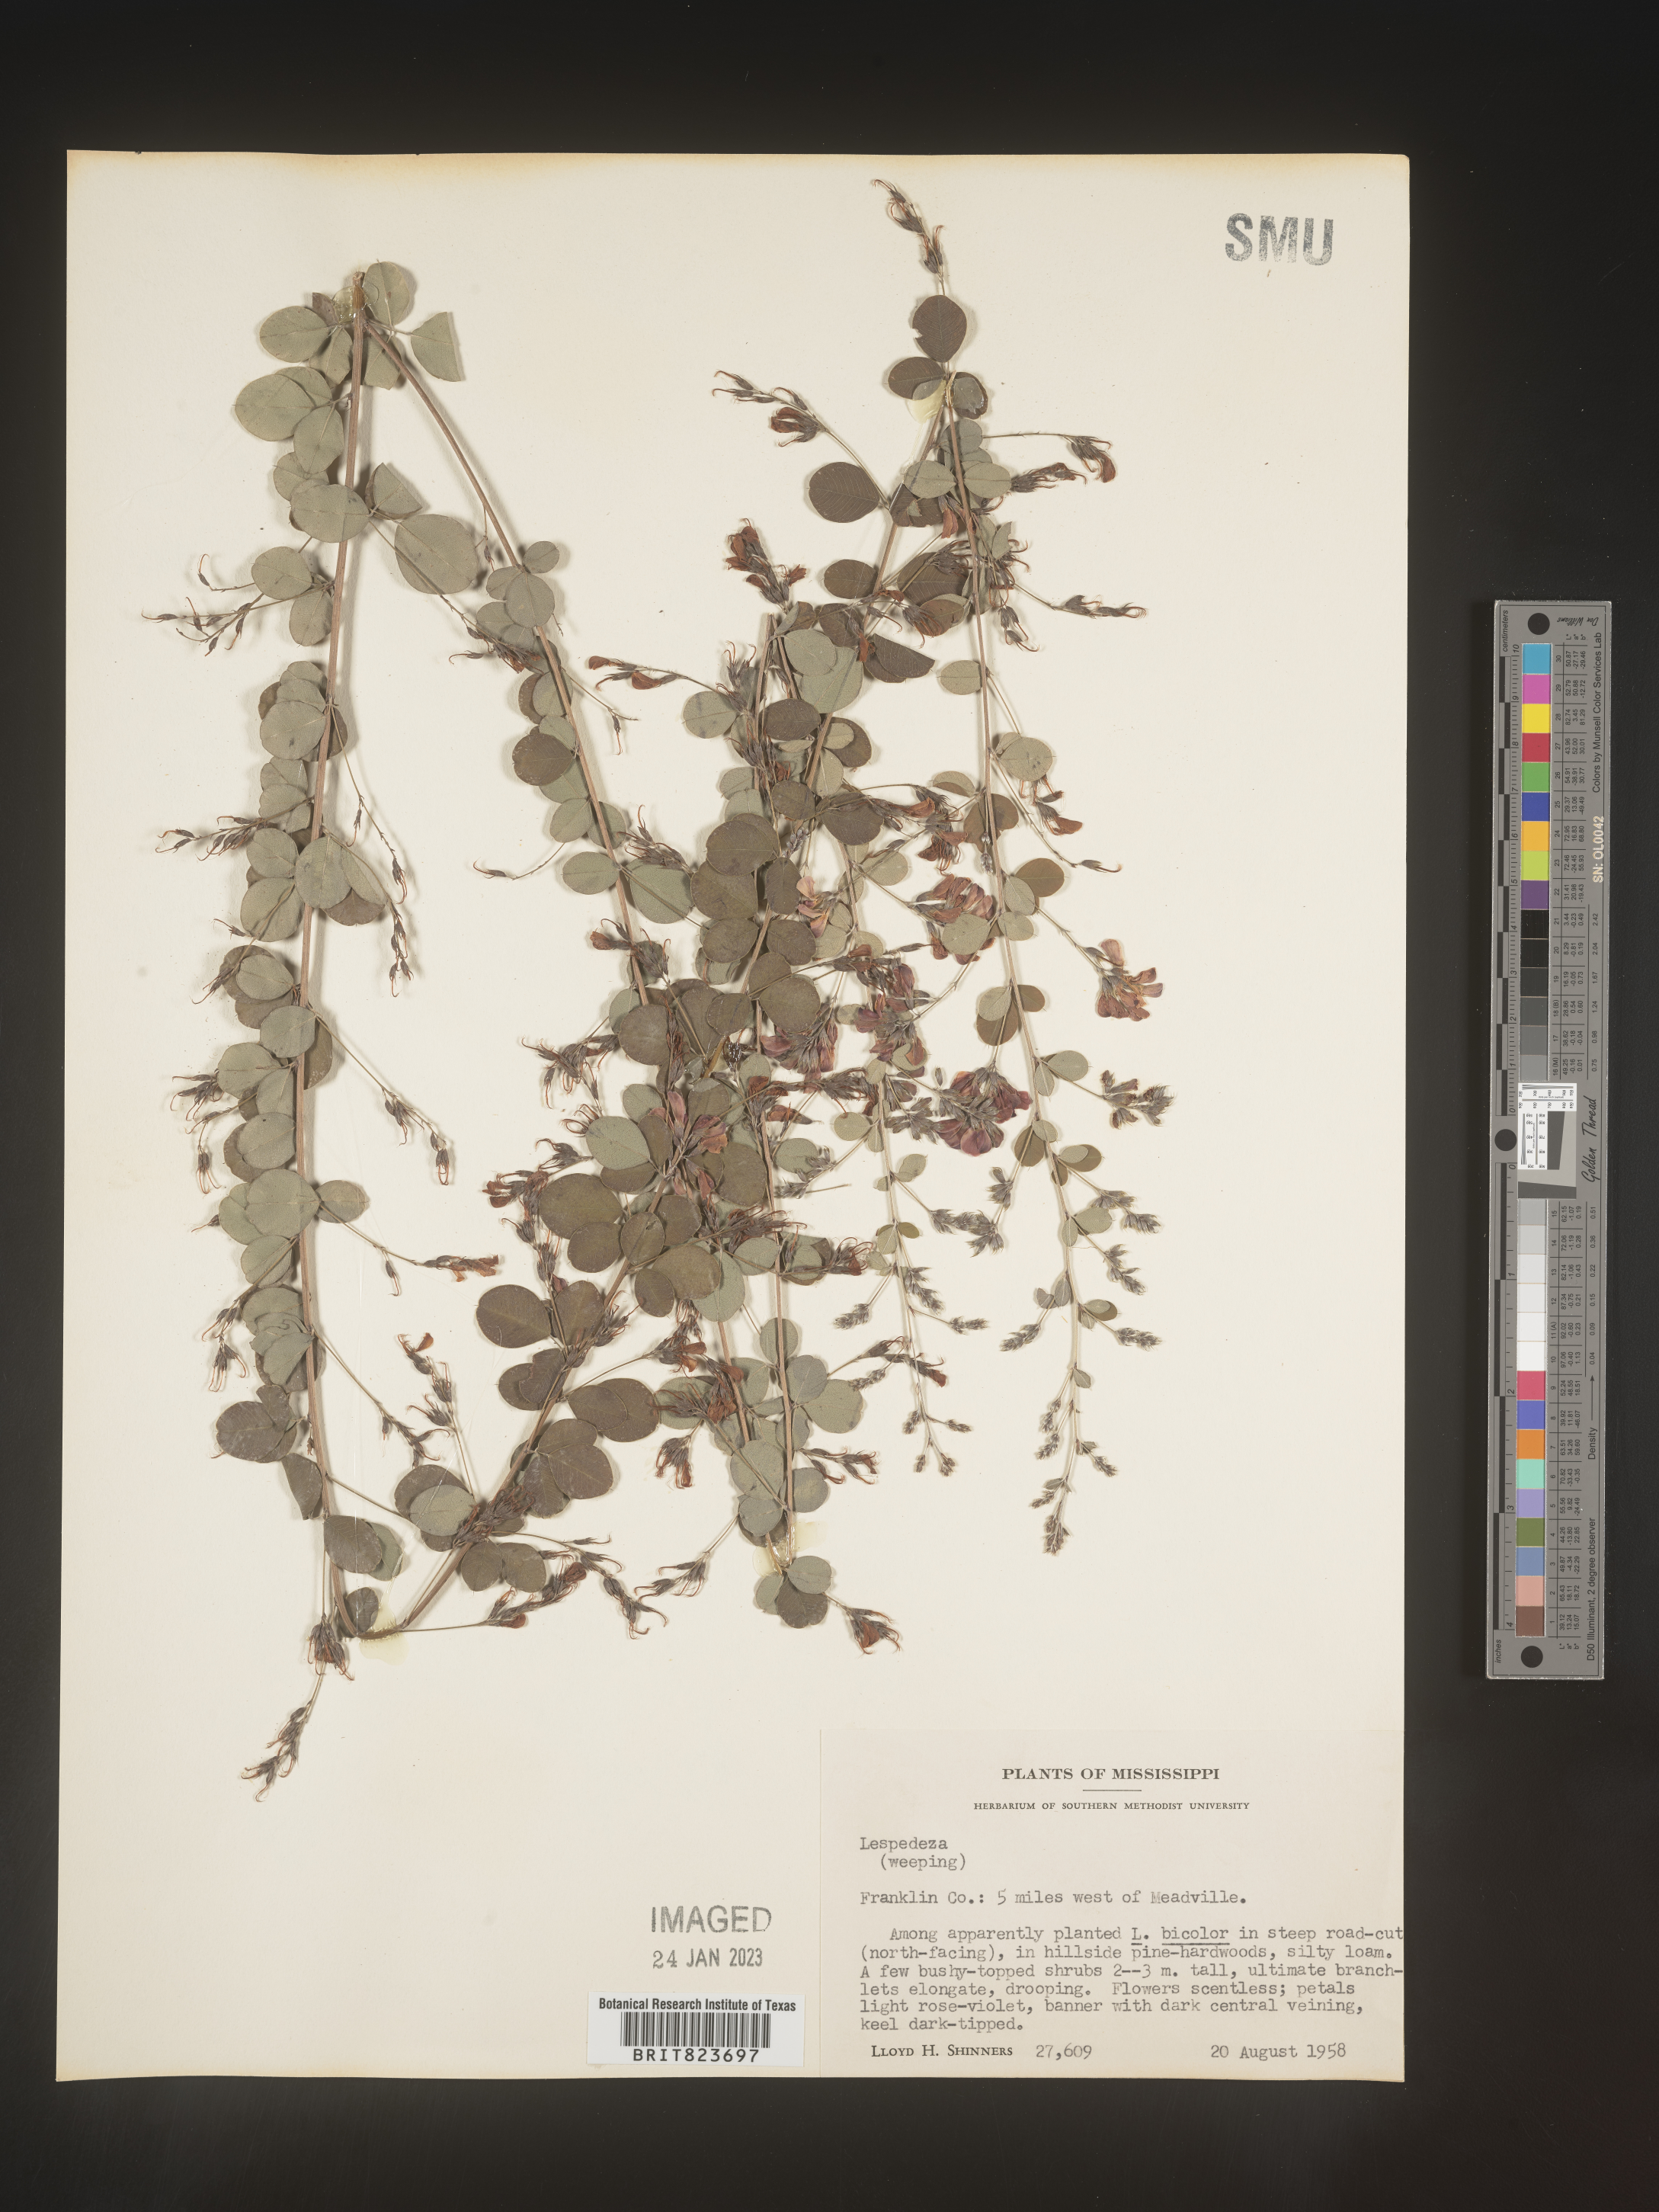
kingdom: Plantae
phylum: Tracheophyta
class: Magnoliopsida
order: Fabales
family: Fabaceae
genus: Lespedeza
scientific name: Lespedeza
